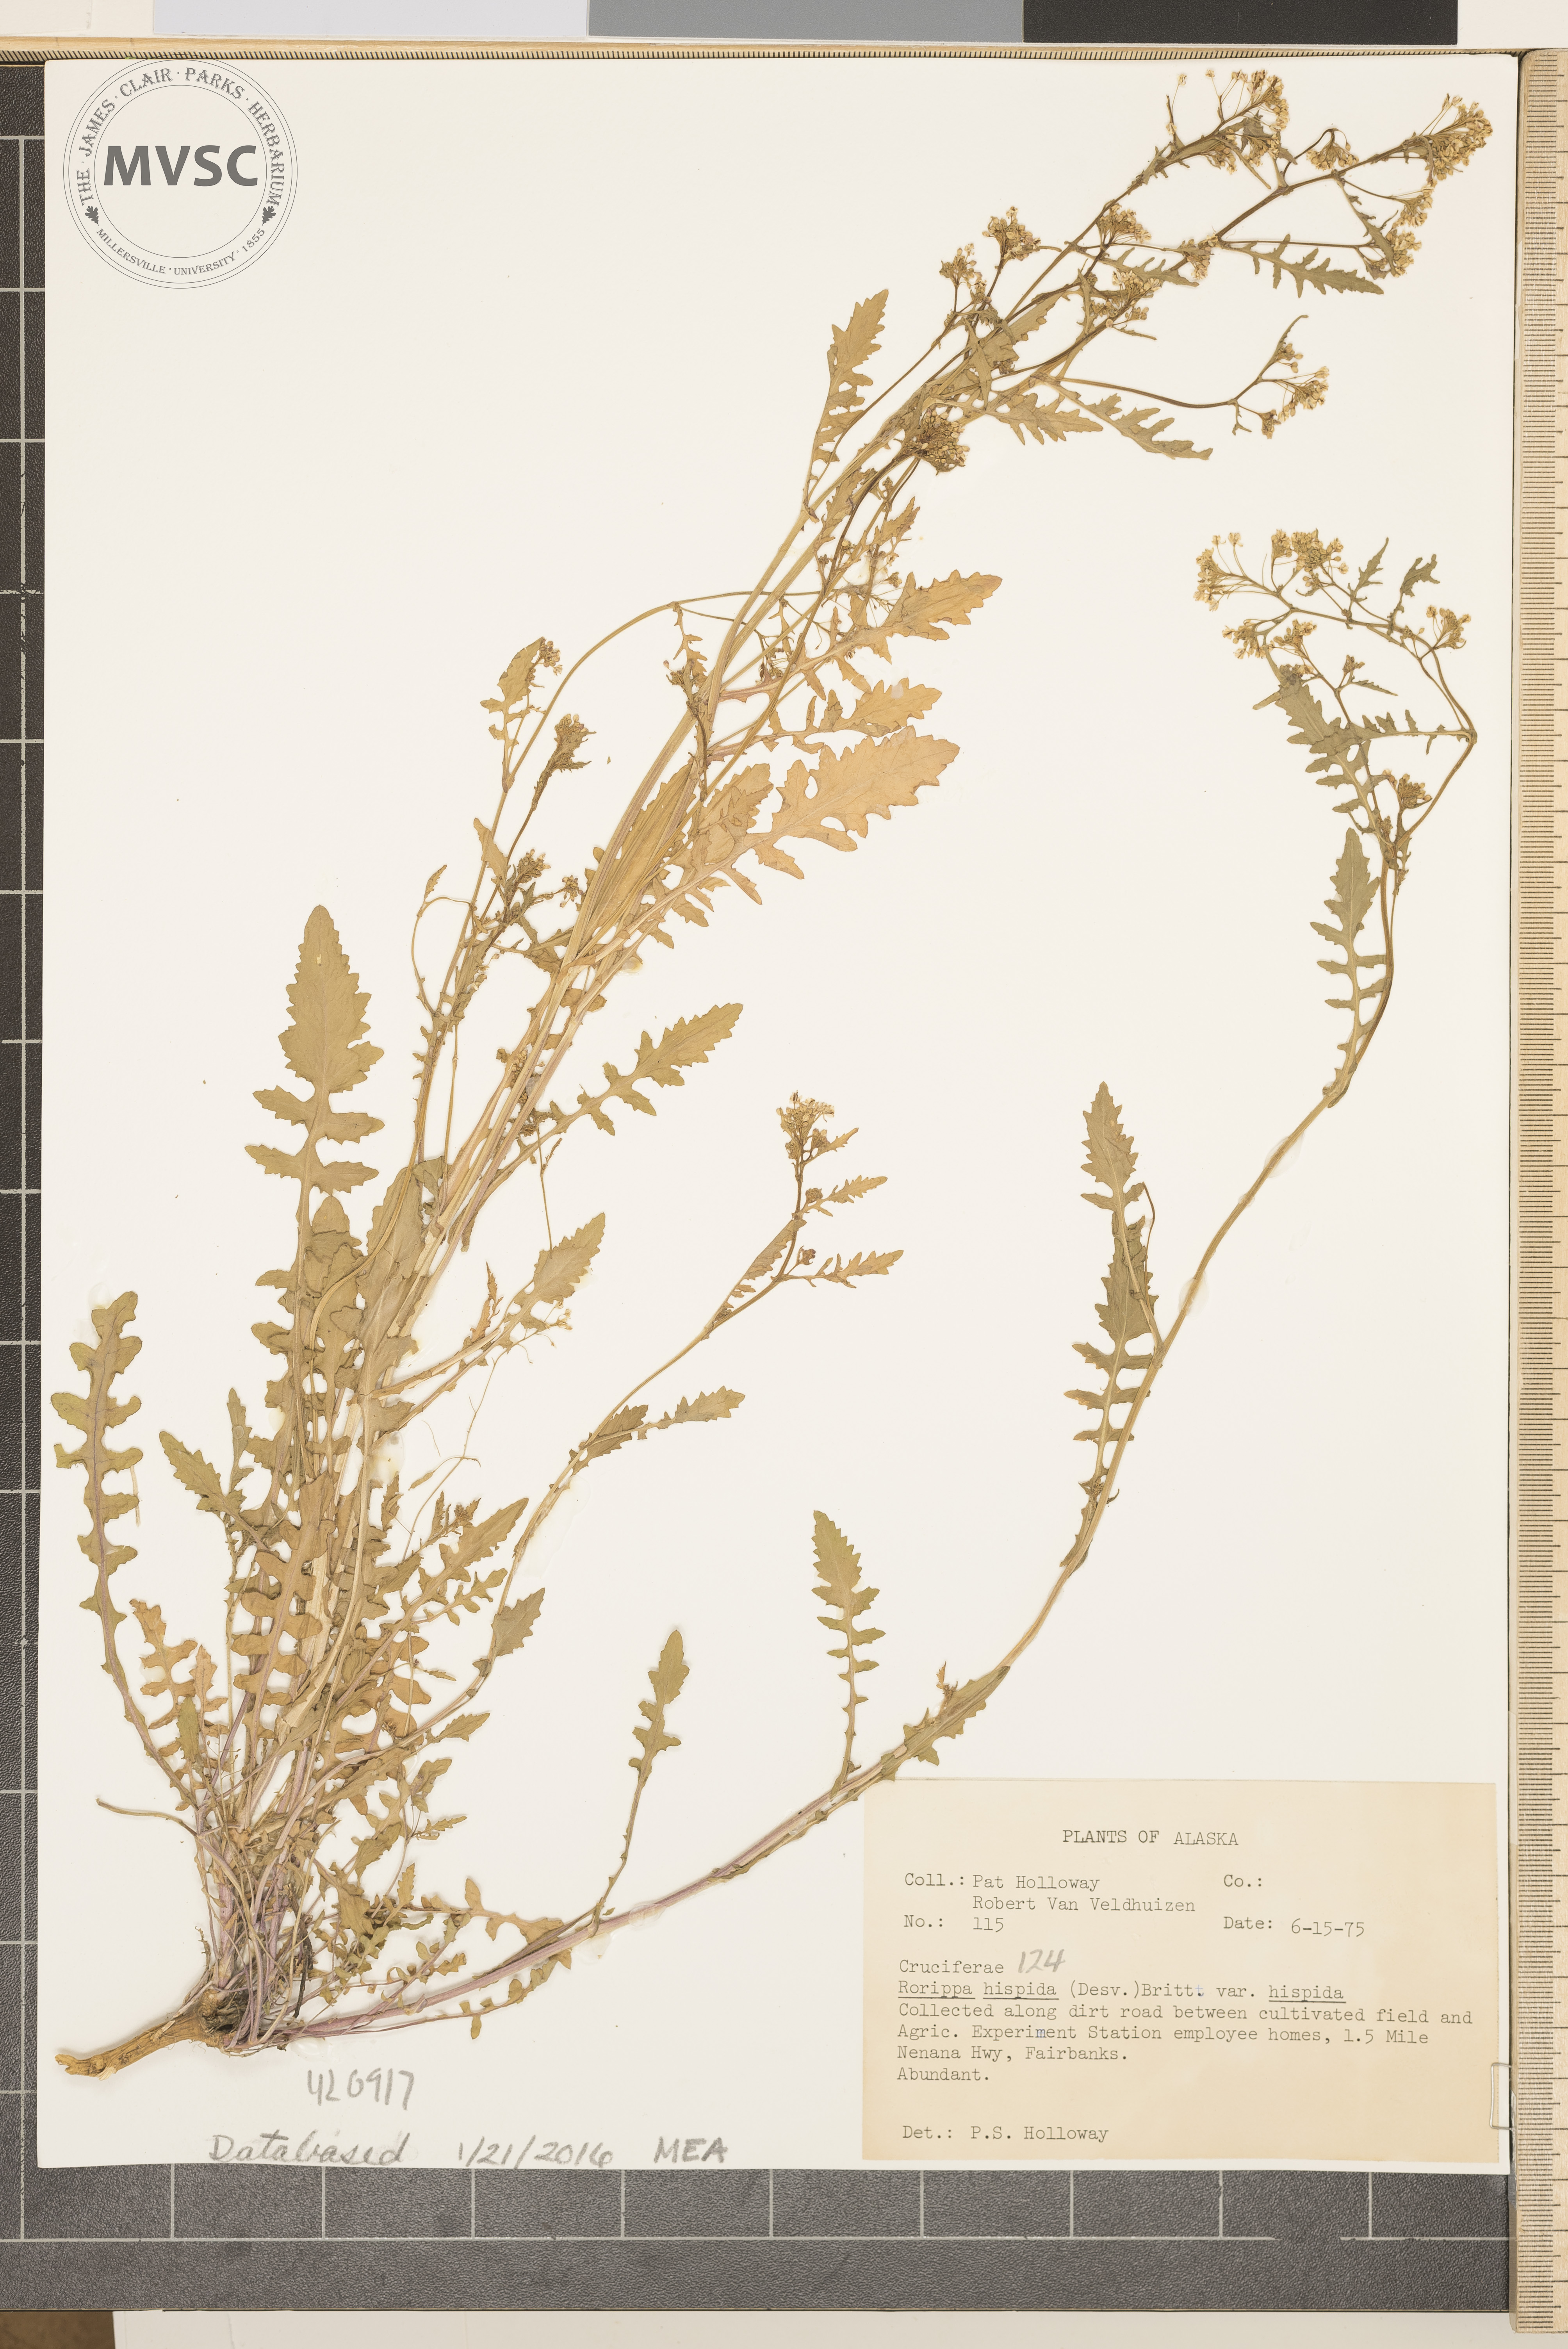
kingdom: Plantae
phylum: Tracheophyta
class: Magnoliopsida
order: Brassicales
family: Brassicaceae
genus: Rorippa
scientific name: Rorippa hispida
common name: Hispid yellowcress
